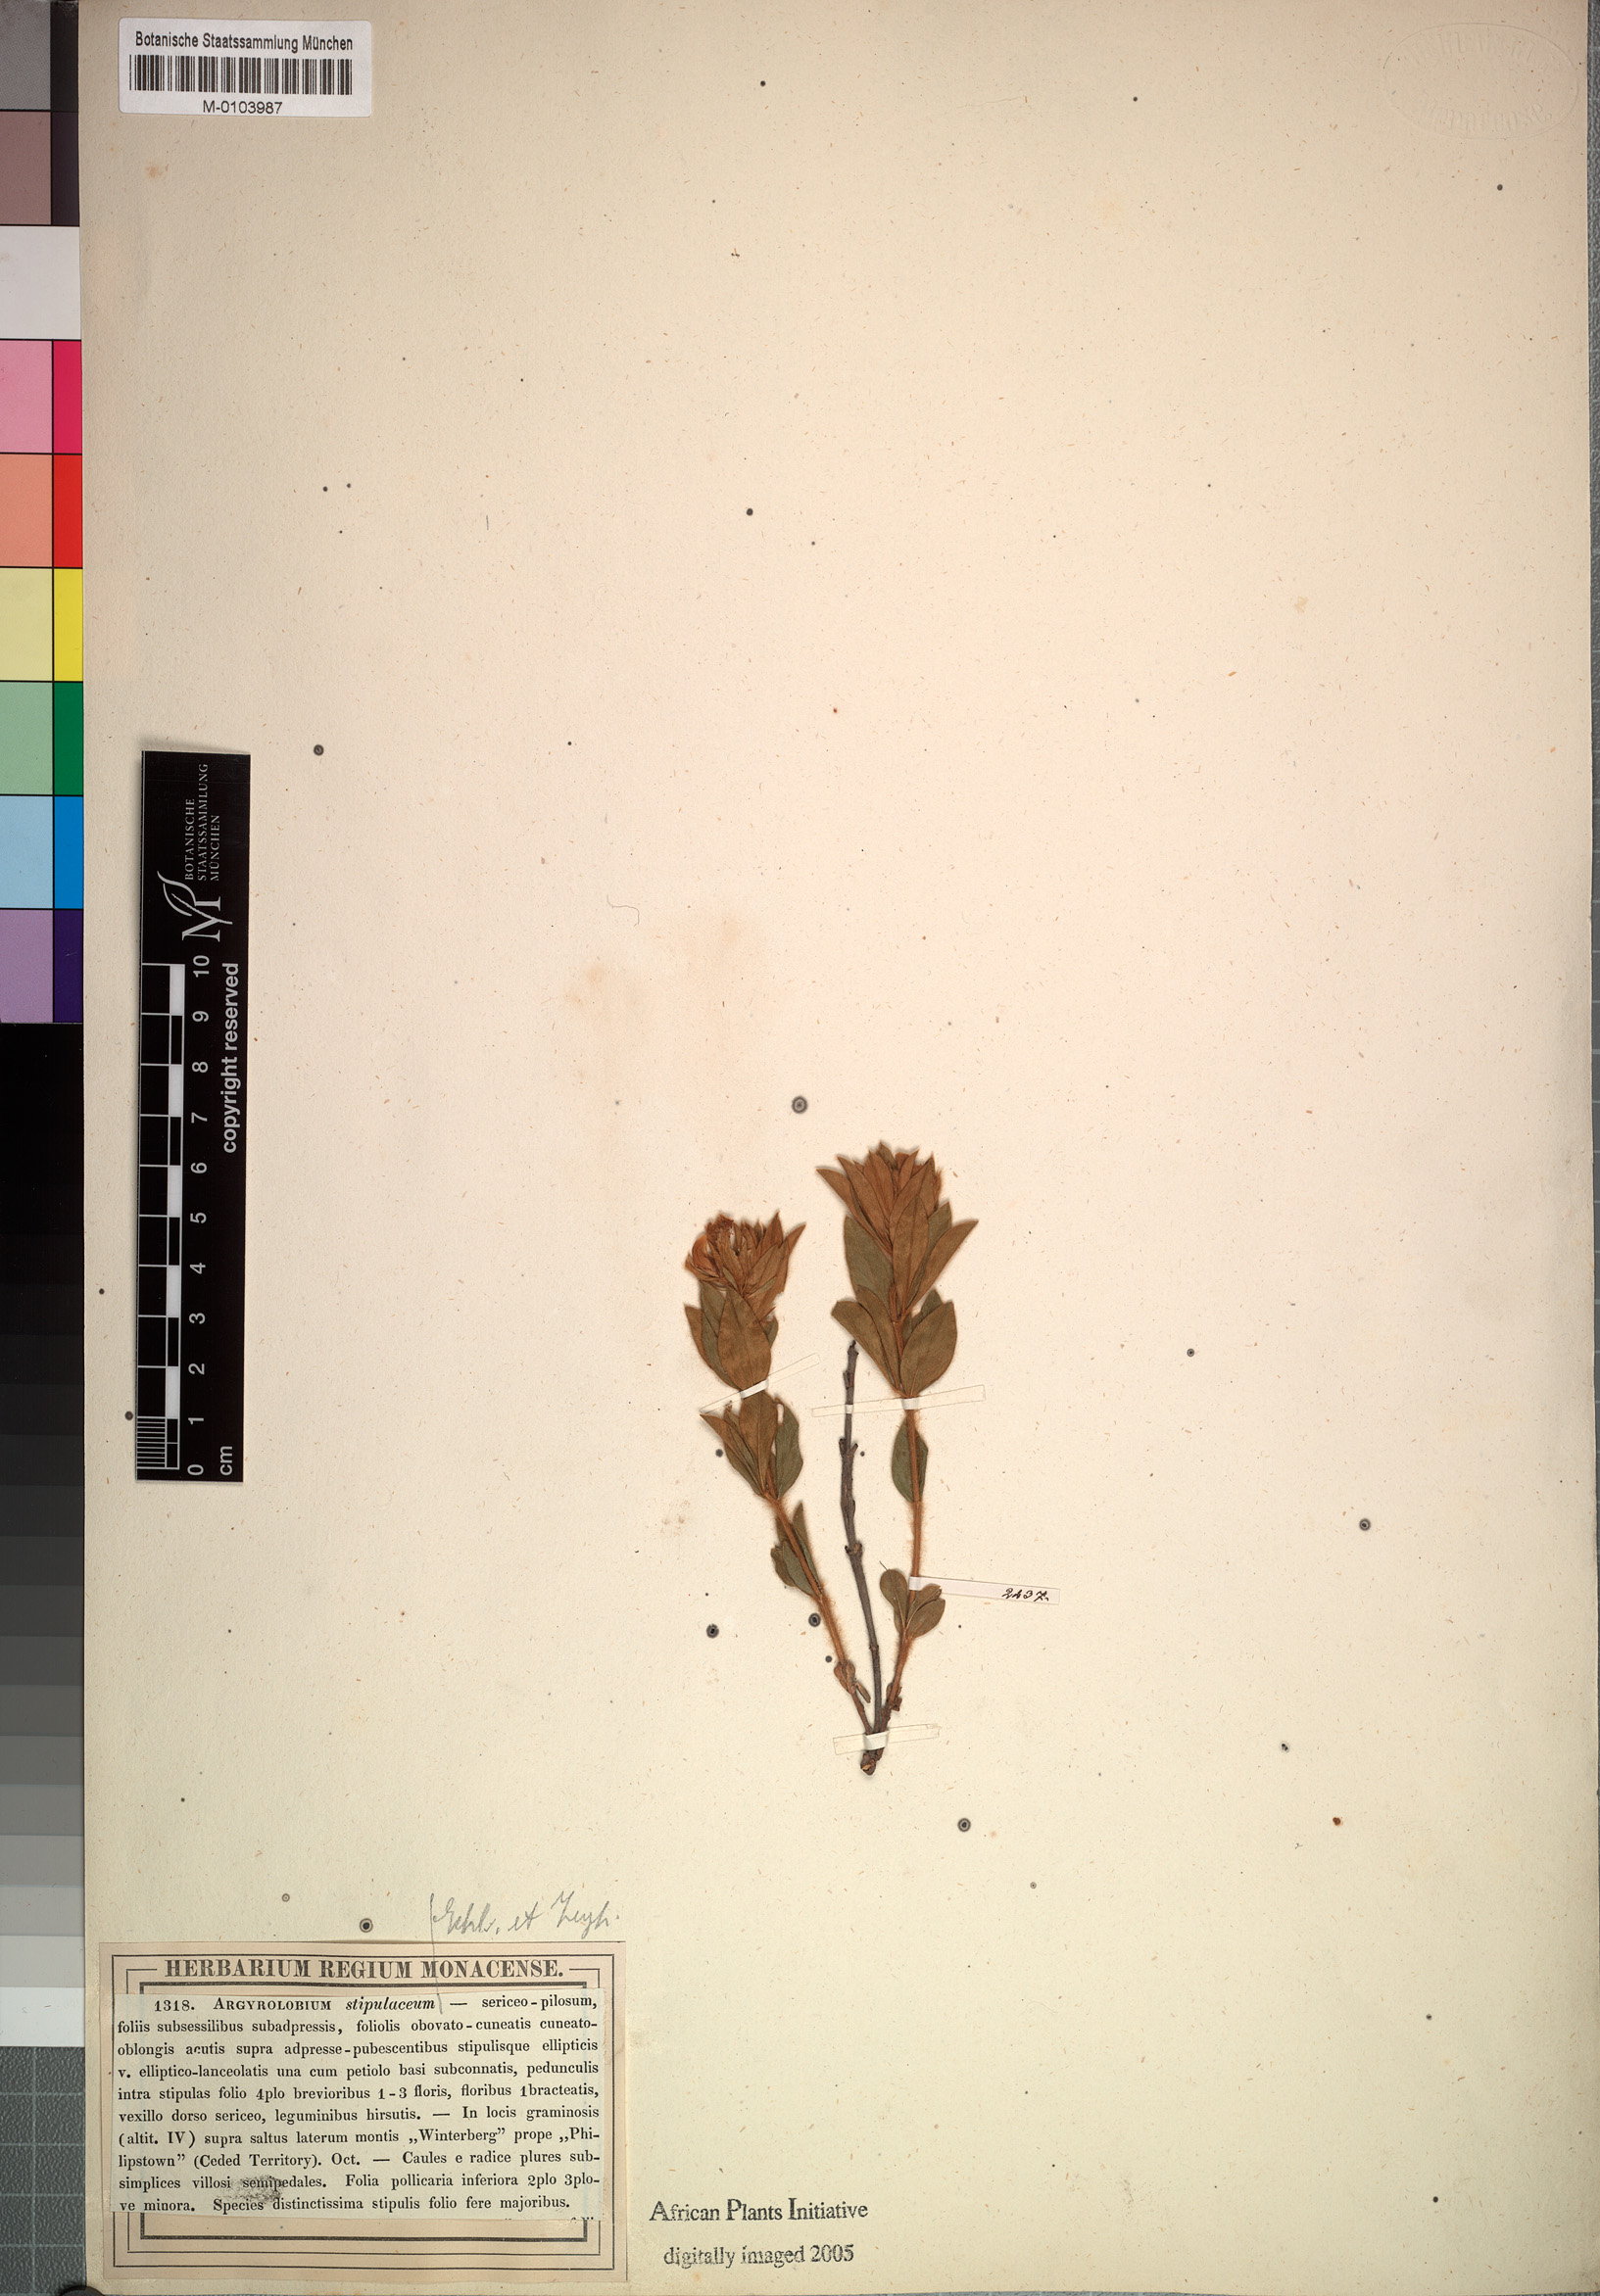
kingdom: Plantae
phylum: Tracheophyta
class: Magnoliopsida
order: Fabales
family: Fabaceae
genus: Argyrolobium
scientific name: Argyrolobium stipulaceum
